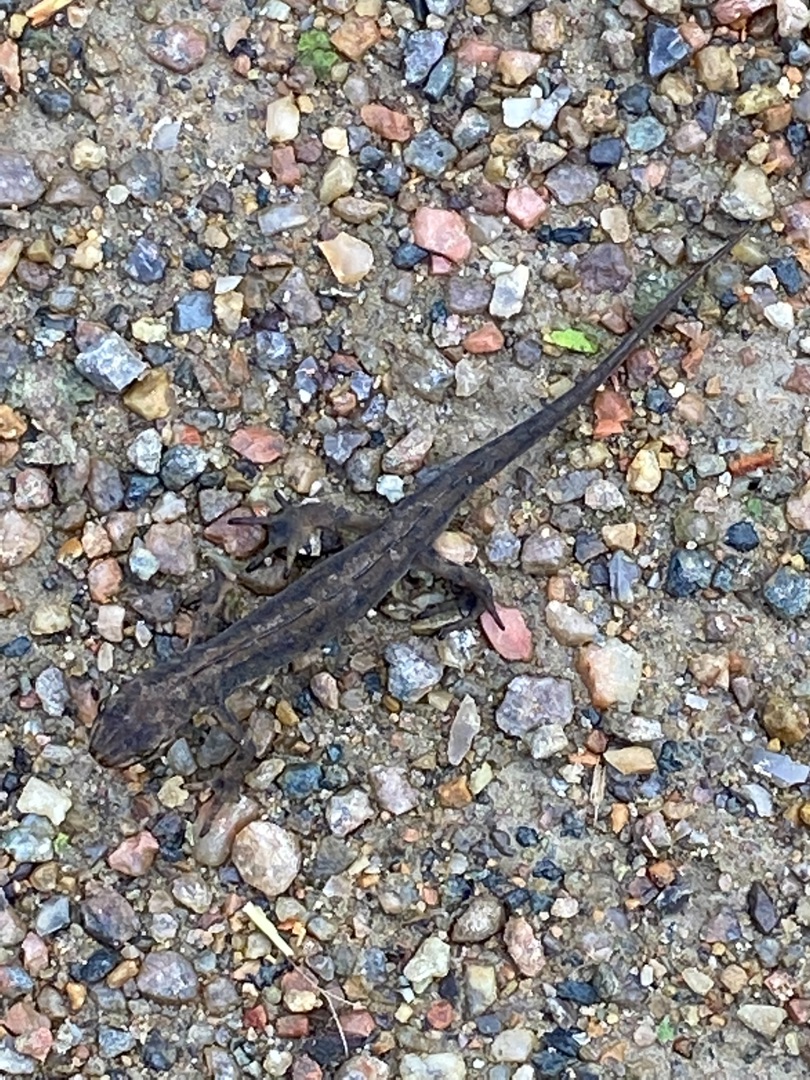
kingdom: Animalia
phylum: Chordata
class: Amphibia
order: Caudata
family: Salamandridae
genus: Lissotriton
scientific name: Lissotriton vulgaris
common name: Lille vandsalamander
